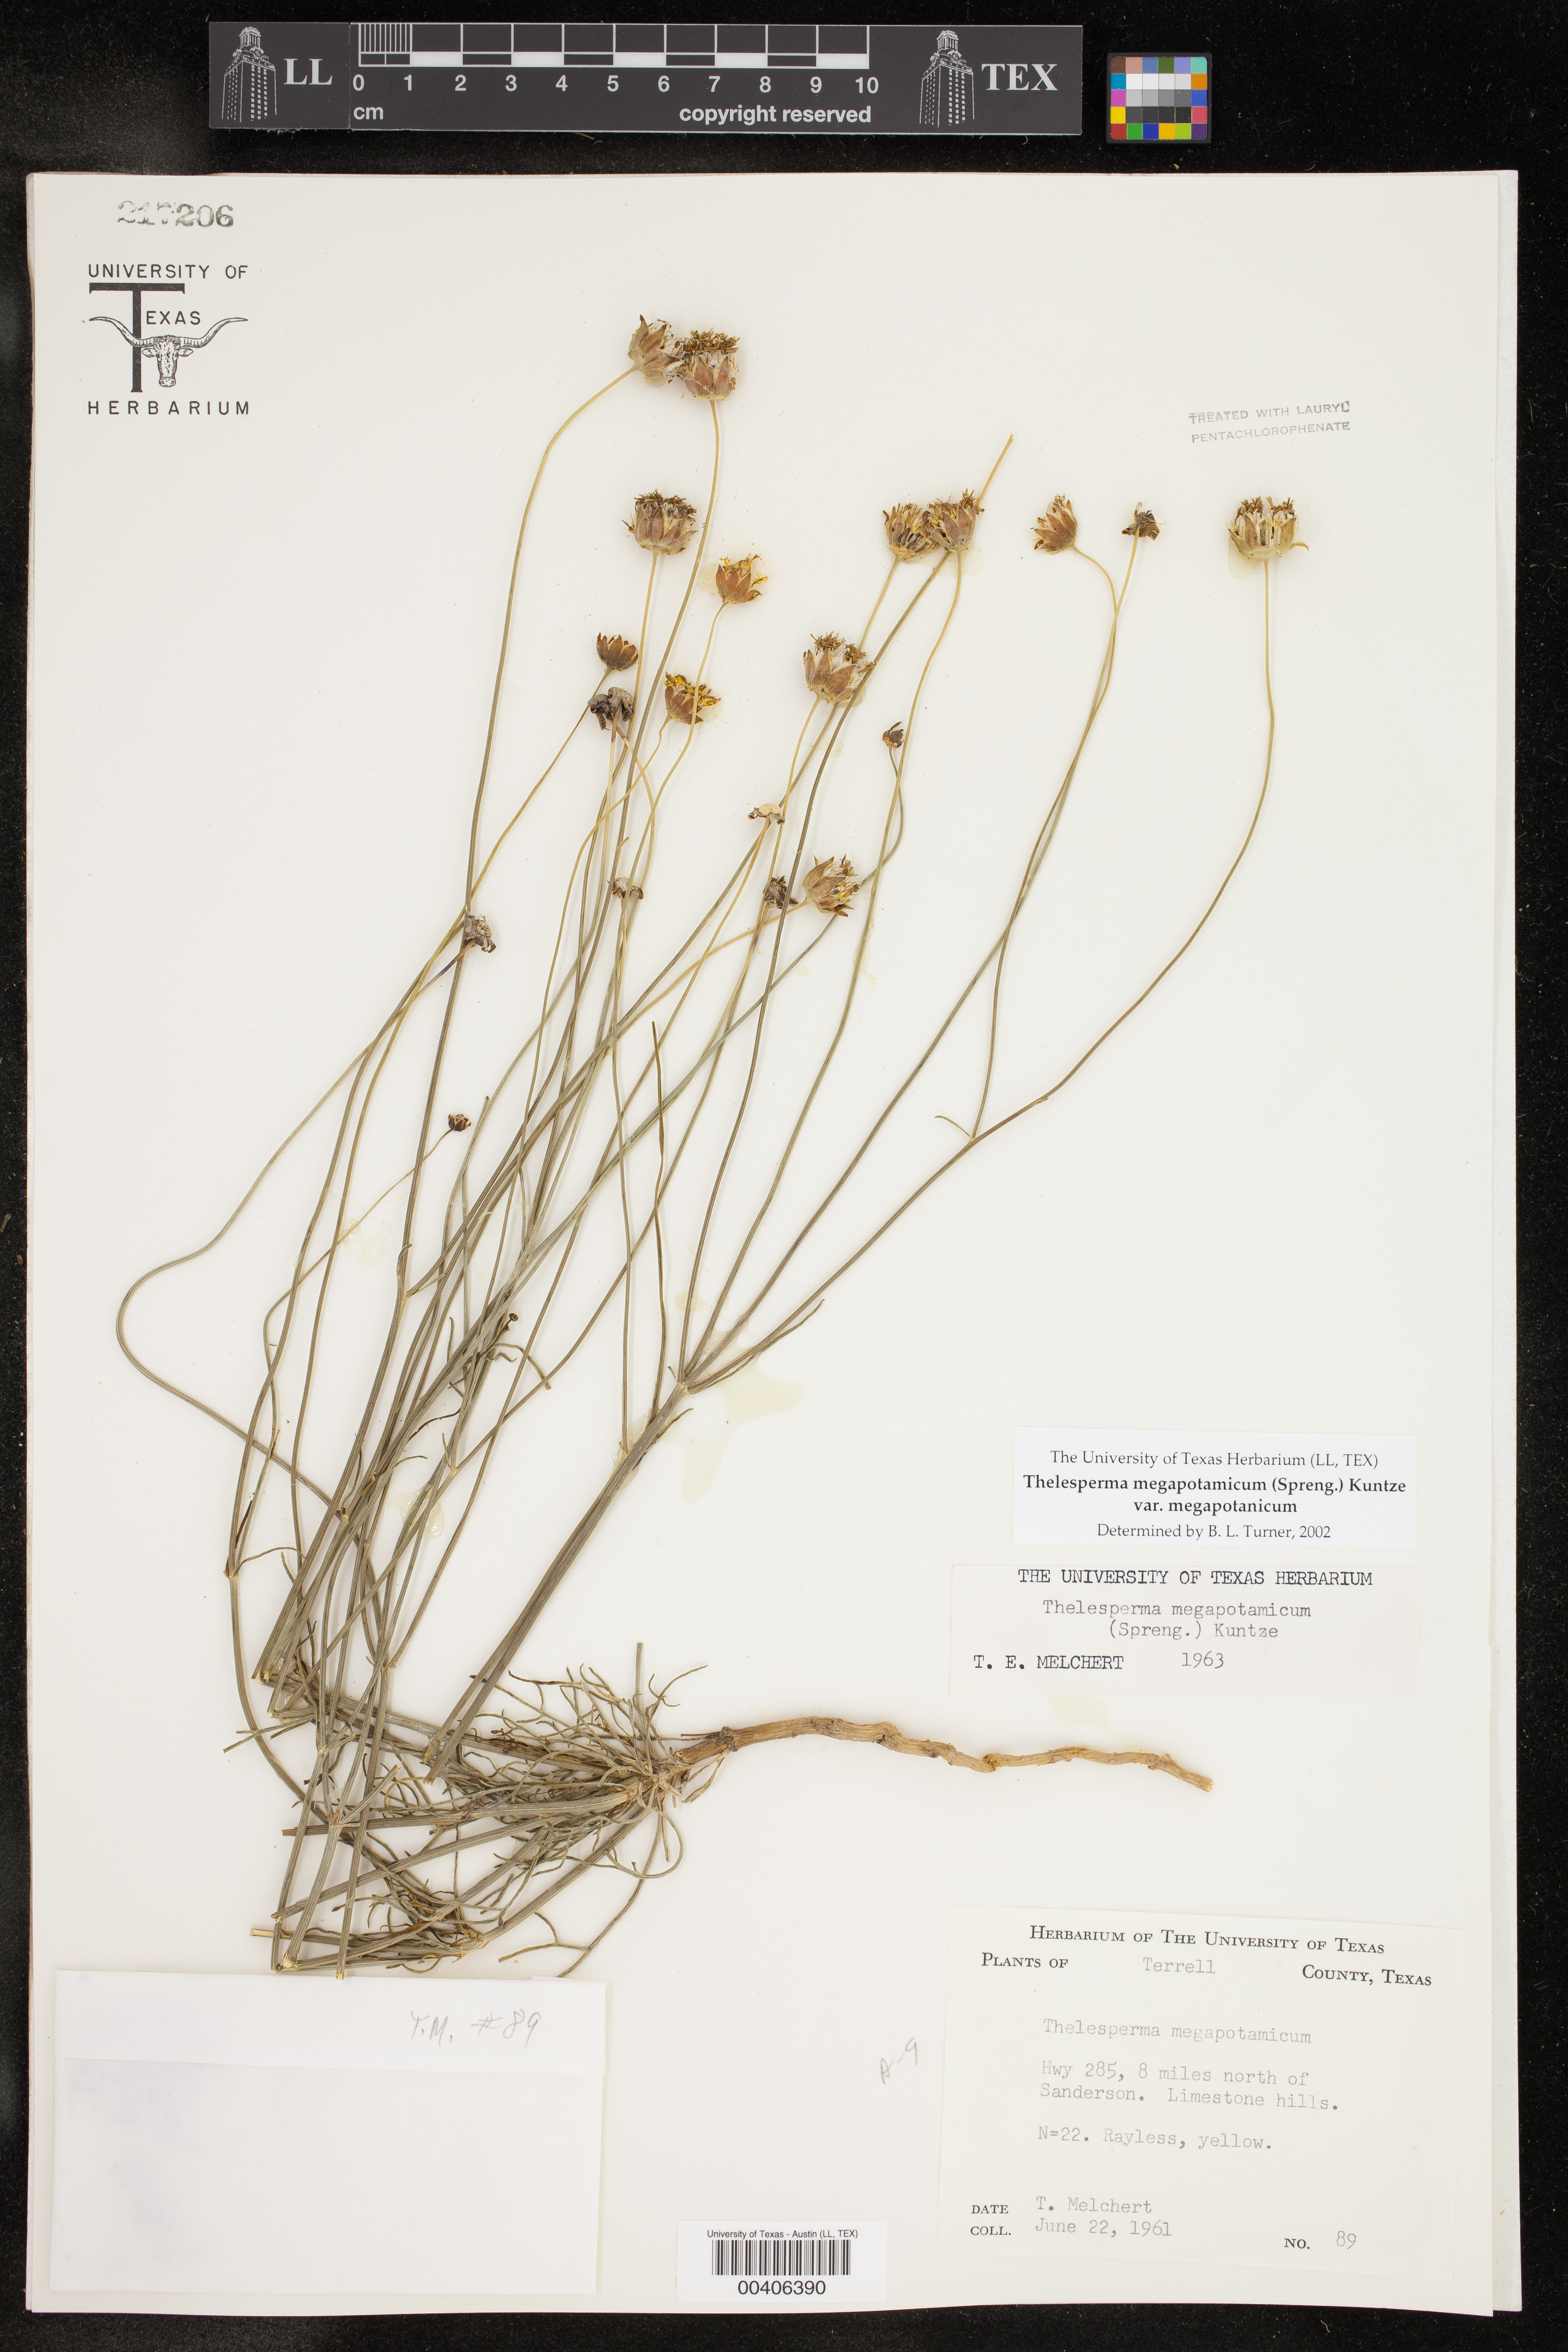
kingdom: Plantae
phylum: Tracheophyta
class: Magnoliopsida
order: Asterales
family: Asteraceae
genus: Thelesperma
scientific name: Thelesperma megapotamicum
